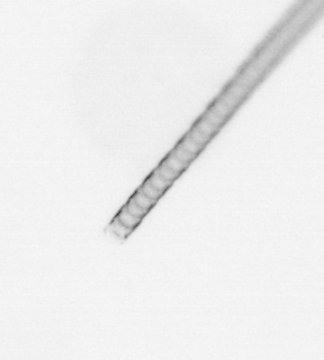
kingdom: Chromista
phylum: Ochrophyta
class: Bacillariophyceae
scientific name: Bacillariophyceae
